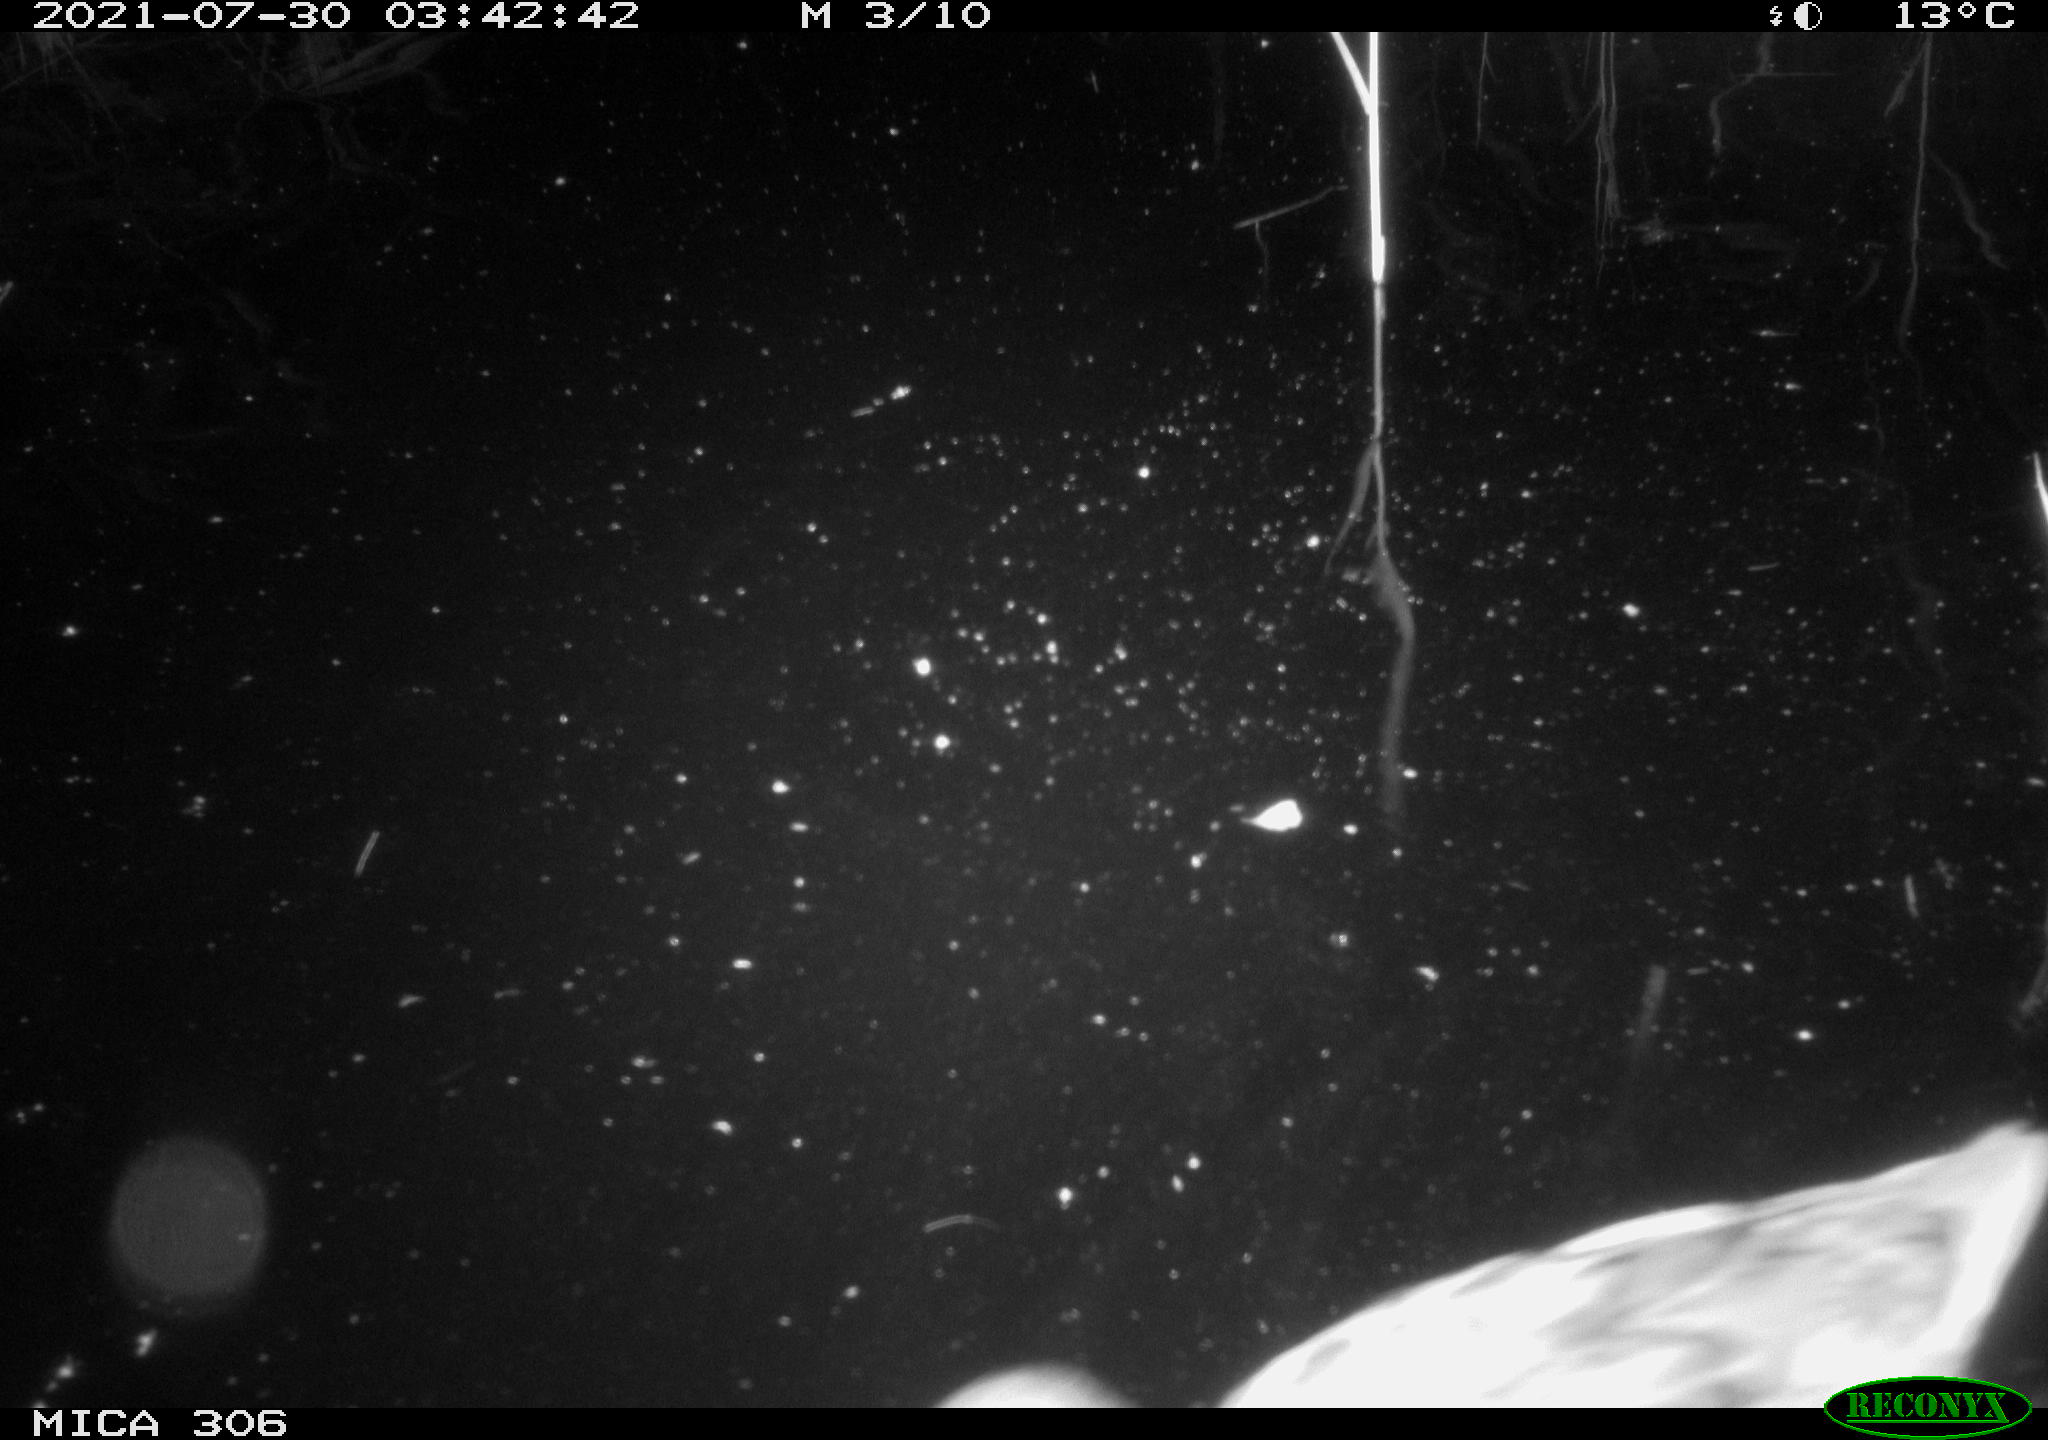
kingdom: Animalia
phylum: Chordata
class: Aves
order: Anseriformes
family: Anatidae
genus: Anas
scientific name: Anas platyrhynchos
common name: Mallard
